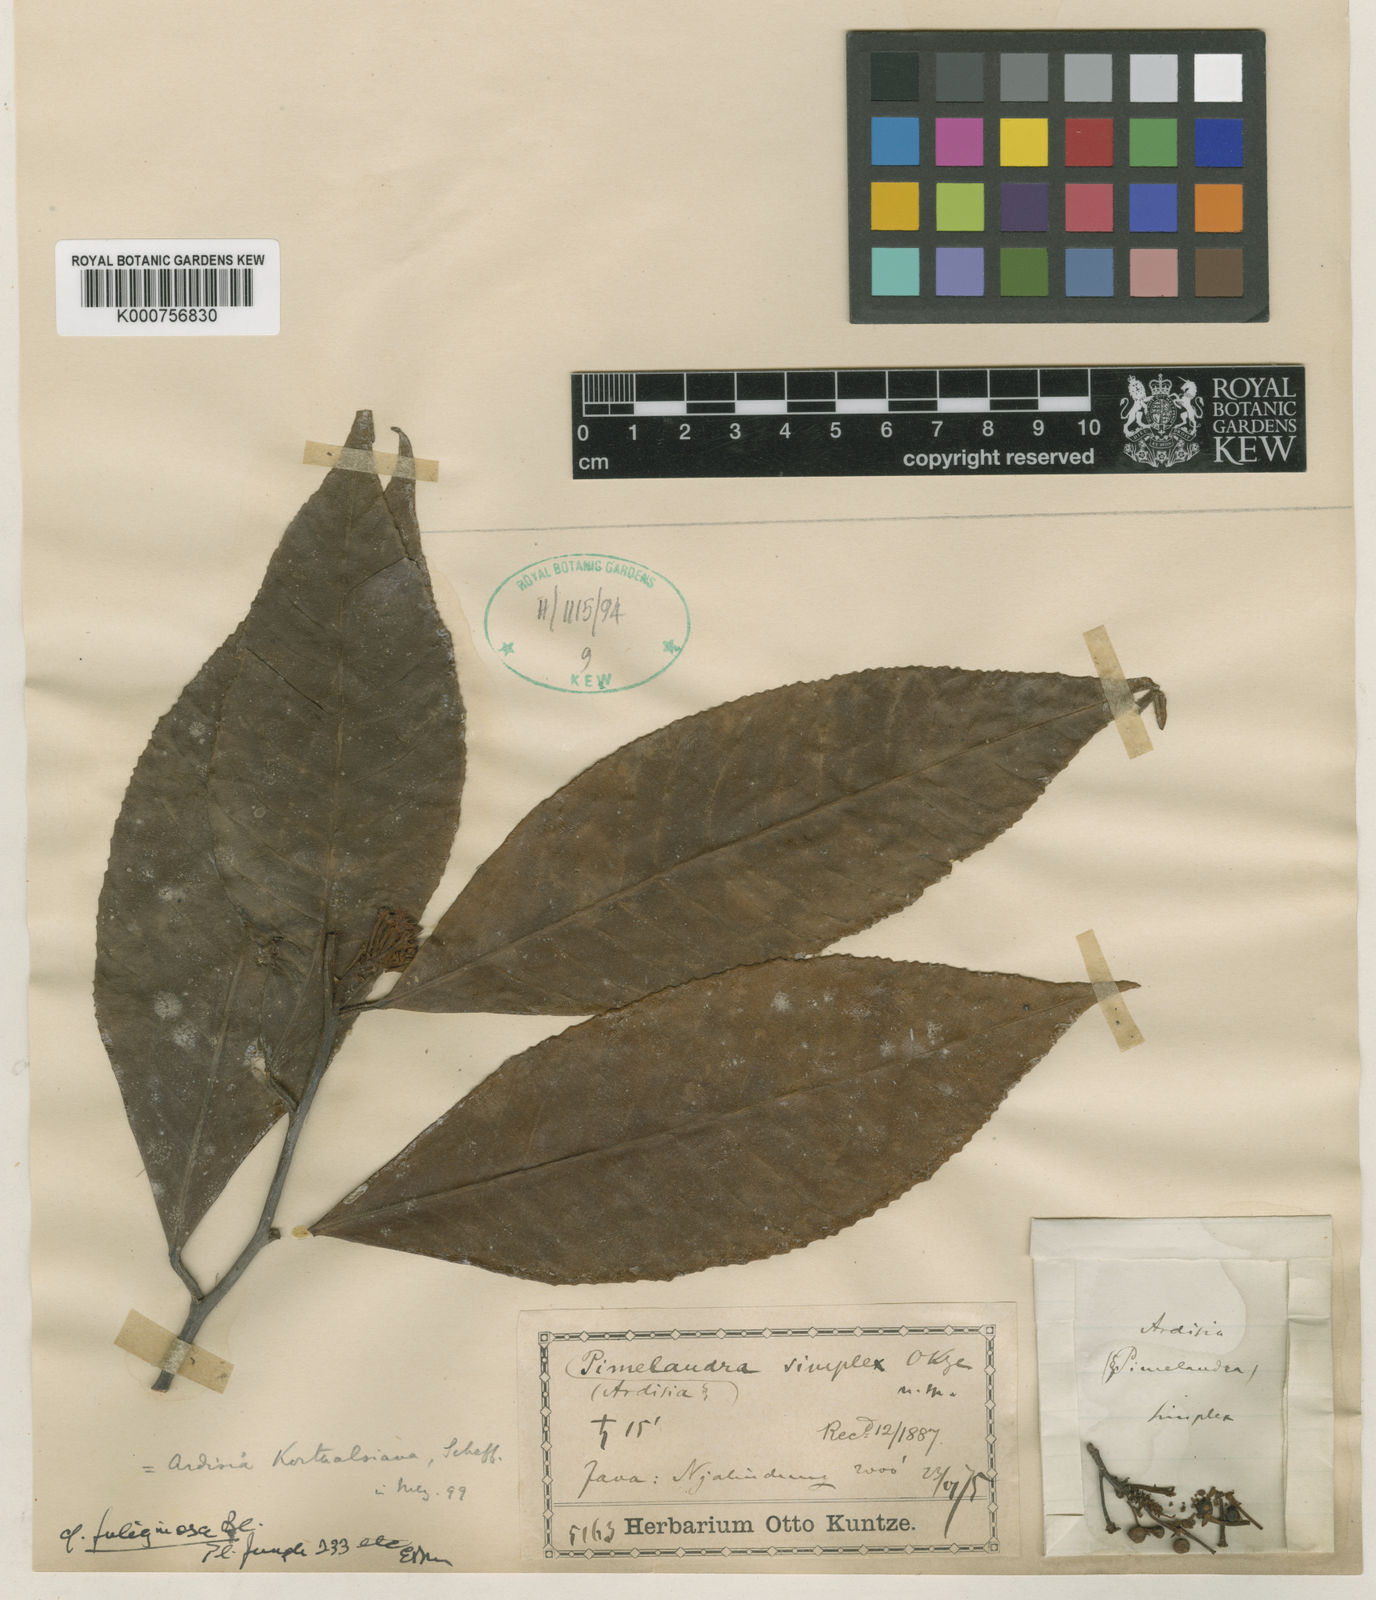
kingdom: Plantae
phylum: Tracheophyta
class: Magnoliopsida
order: Ericales
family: Primulaceae
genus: Ardisia
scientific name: Ardisia fuliginosa
